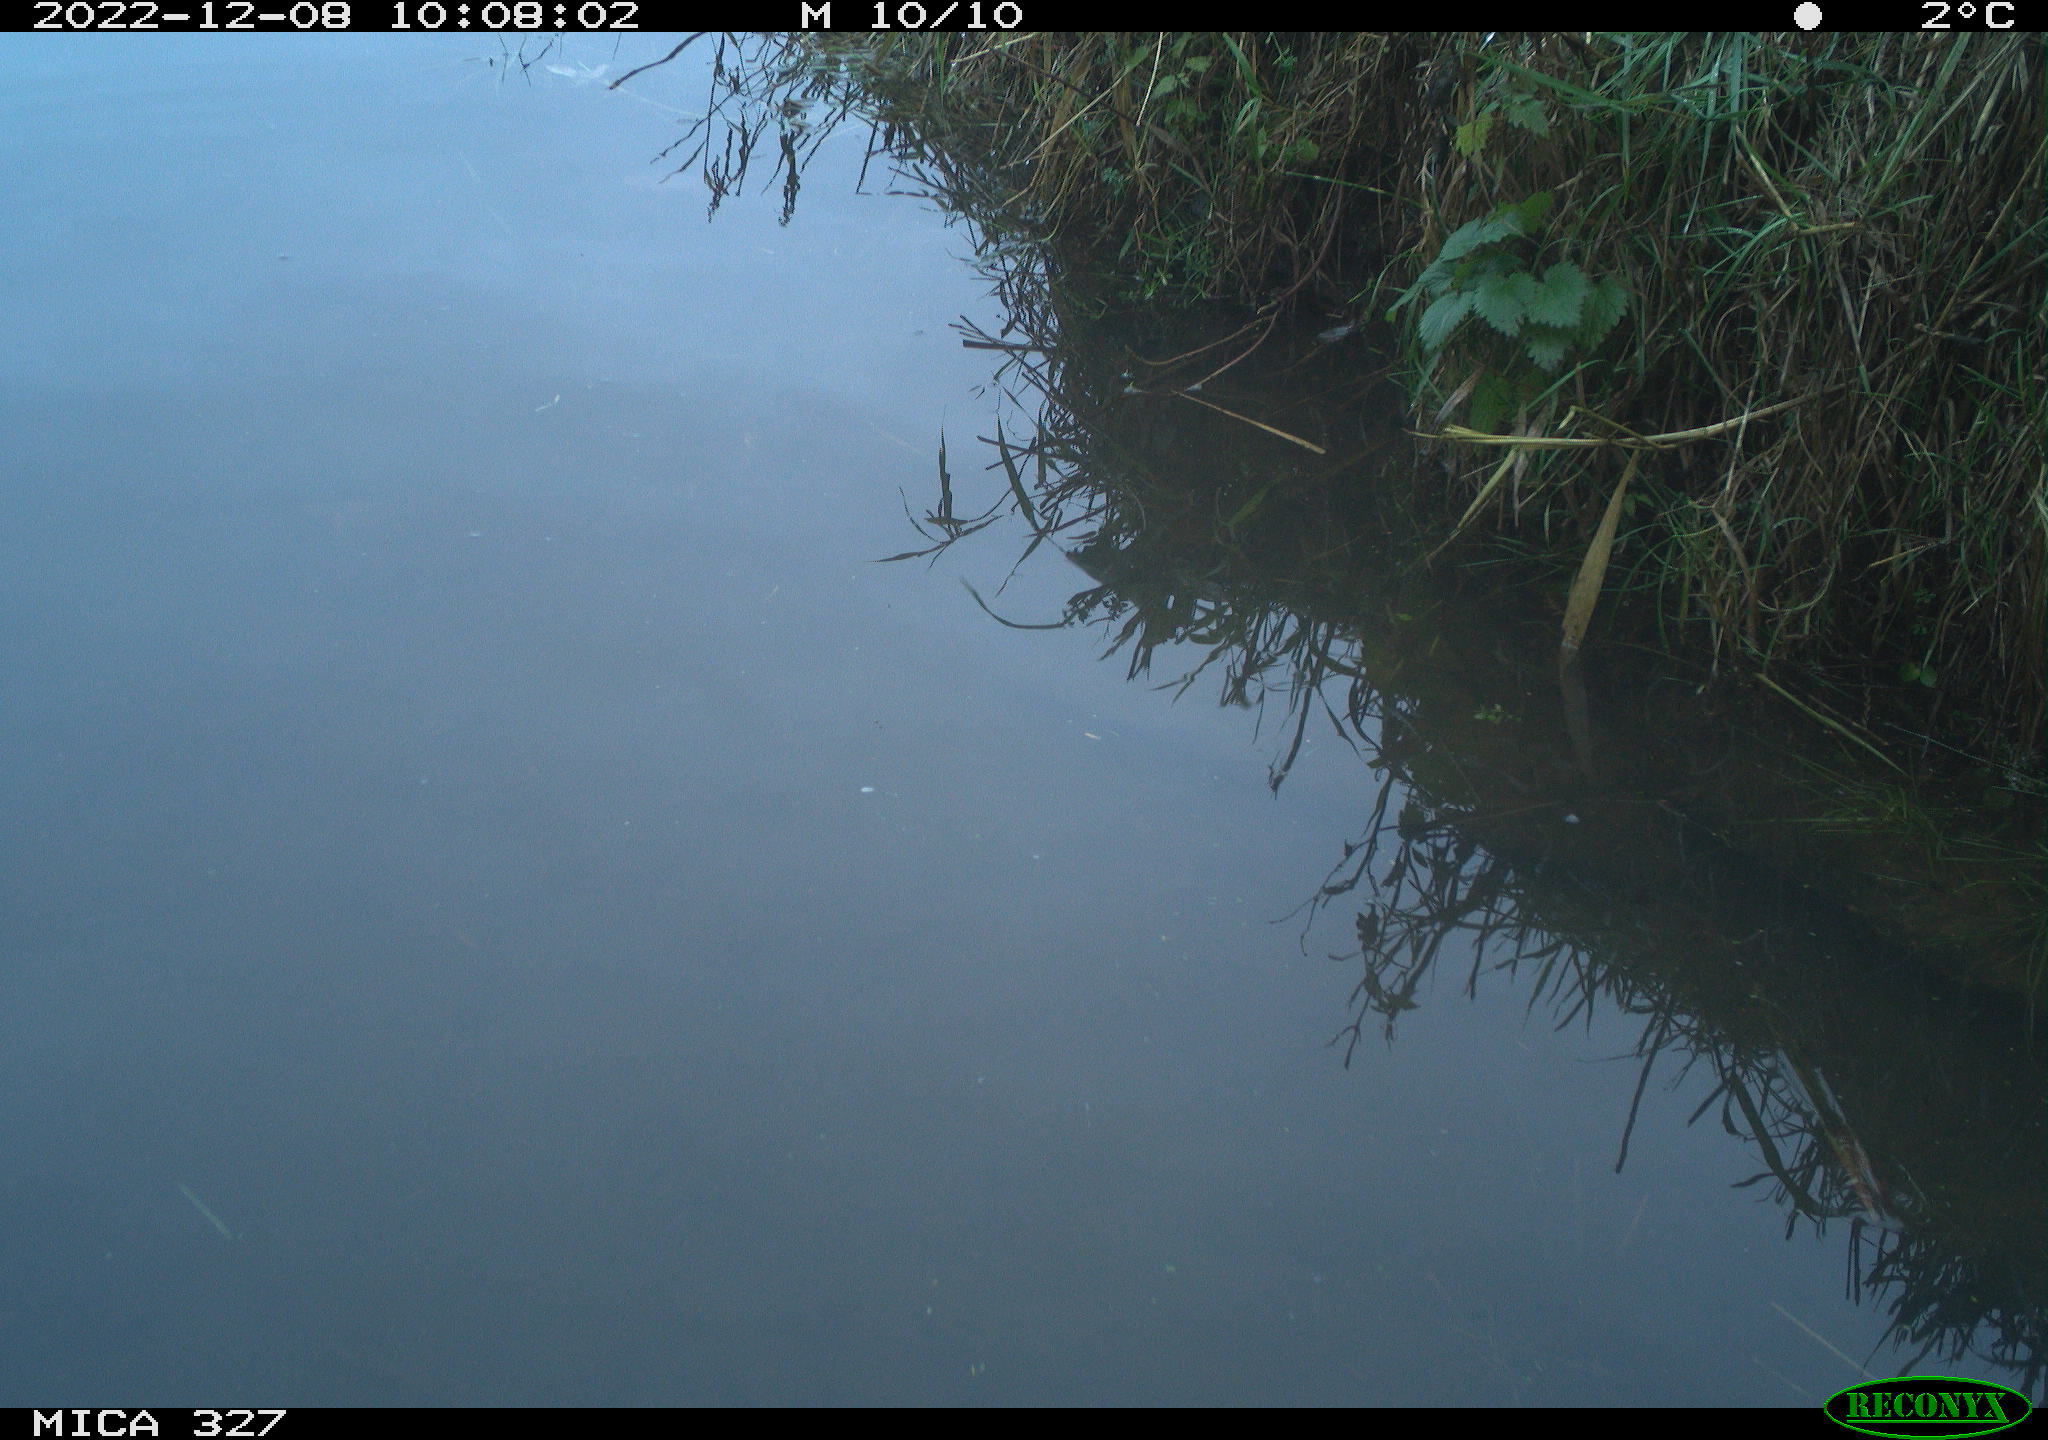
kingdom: Animalia
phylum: Chordata
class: Aves
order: Gruiformes
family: Rallidae
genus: Gallinula
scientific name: Gallinula chloropus
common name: Common moorhen
